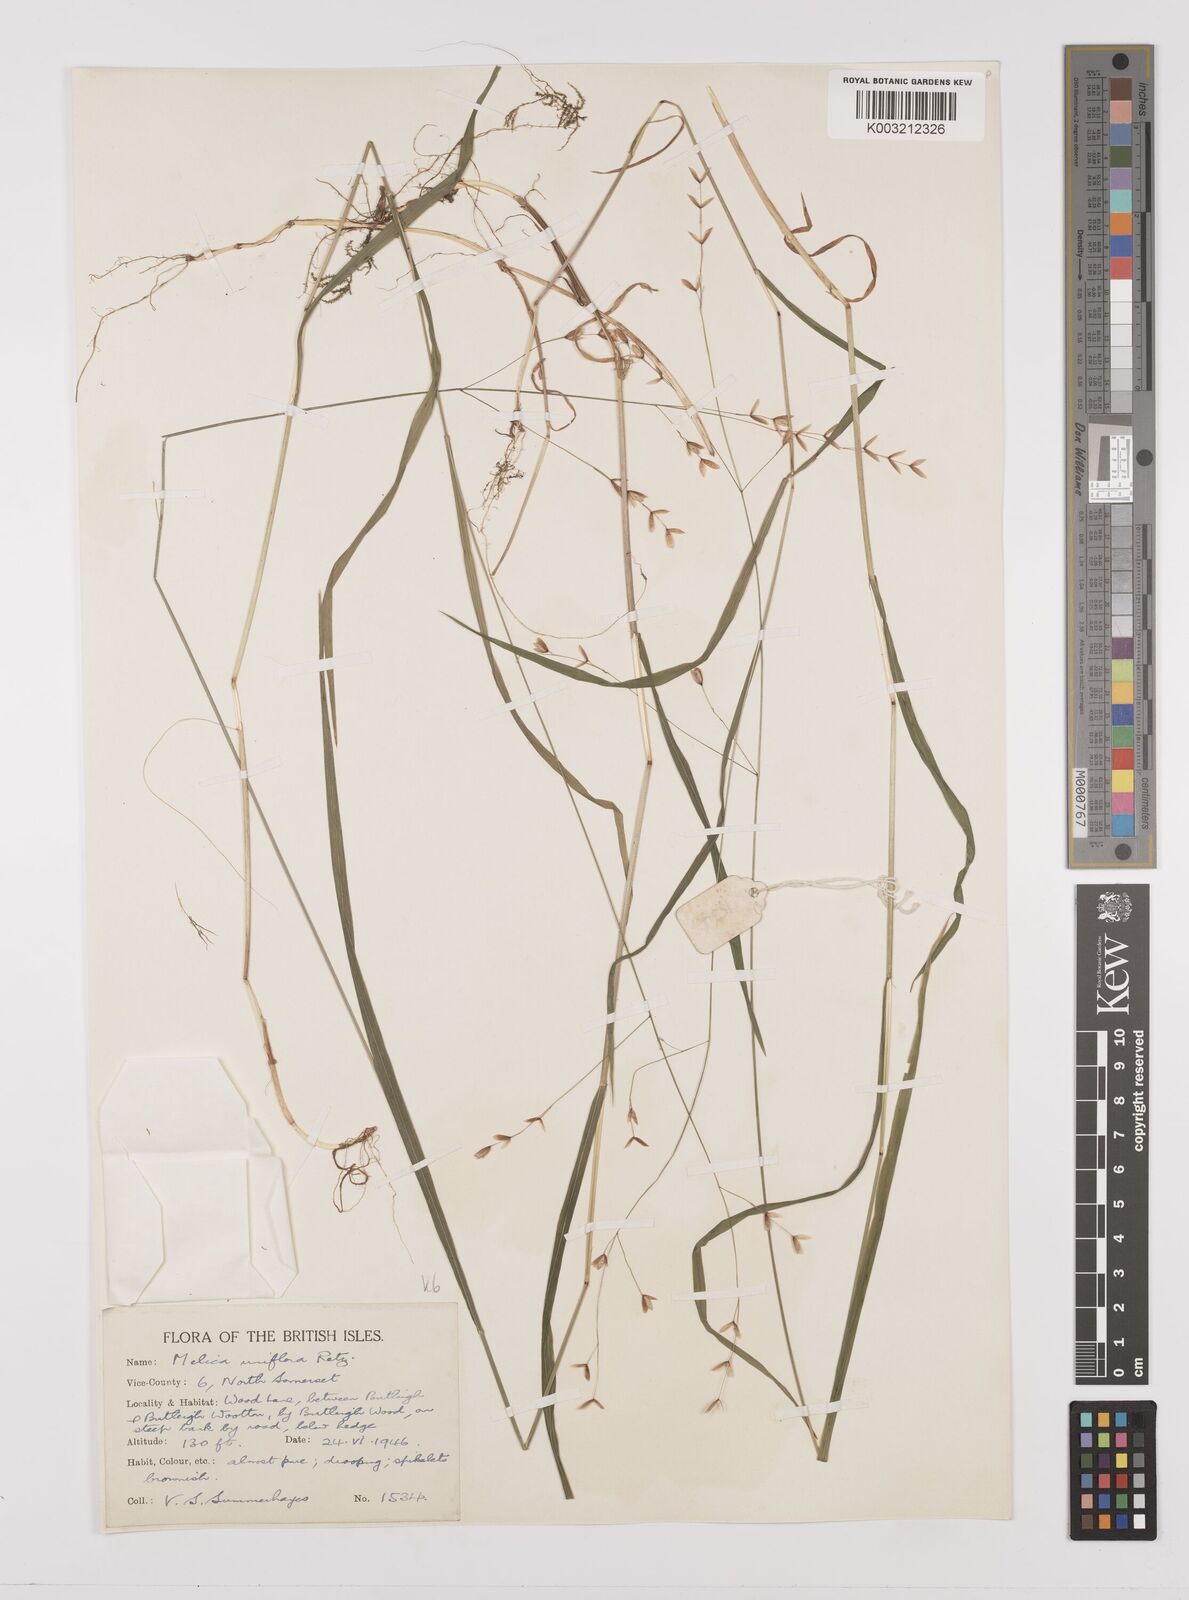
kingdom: Plantae
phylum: Tracheophyta
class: Liliopsida
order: Poales
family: Poaceae
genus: Melica
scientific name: Melica uniflora
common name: Wood melick
